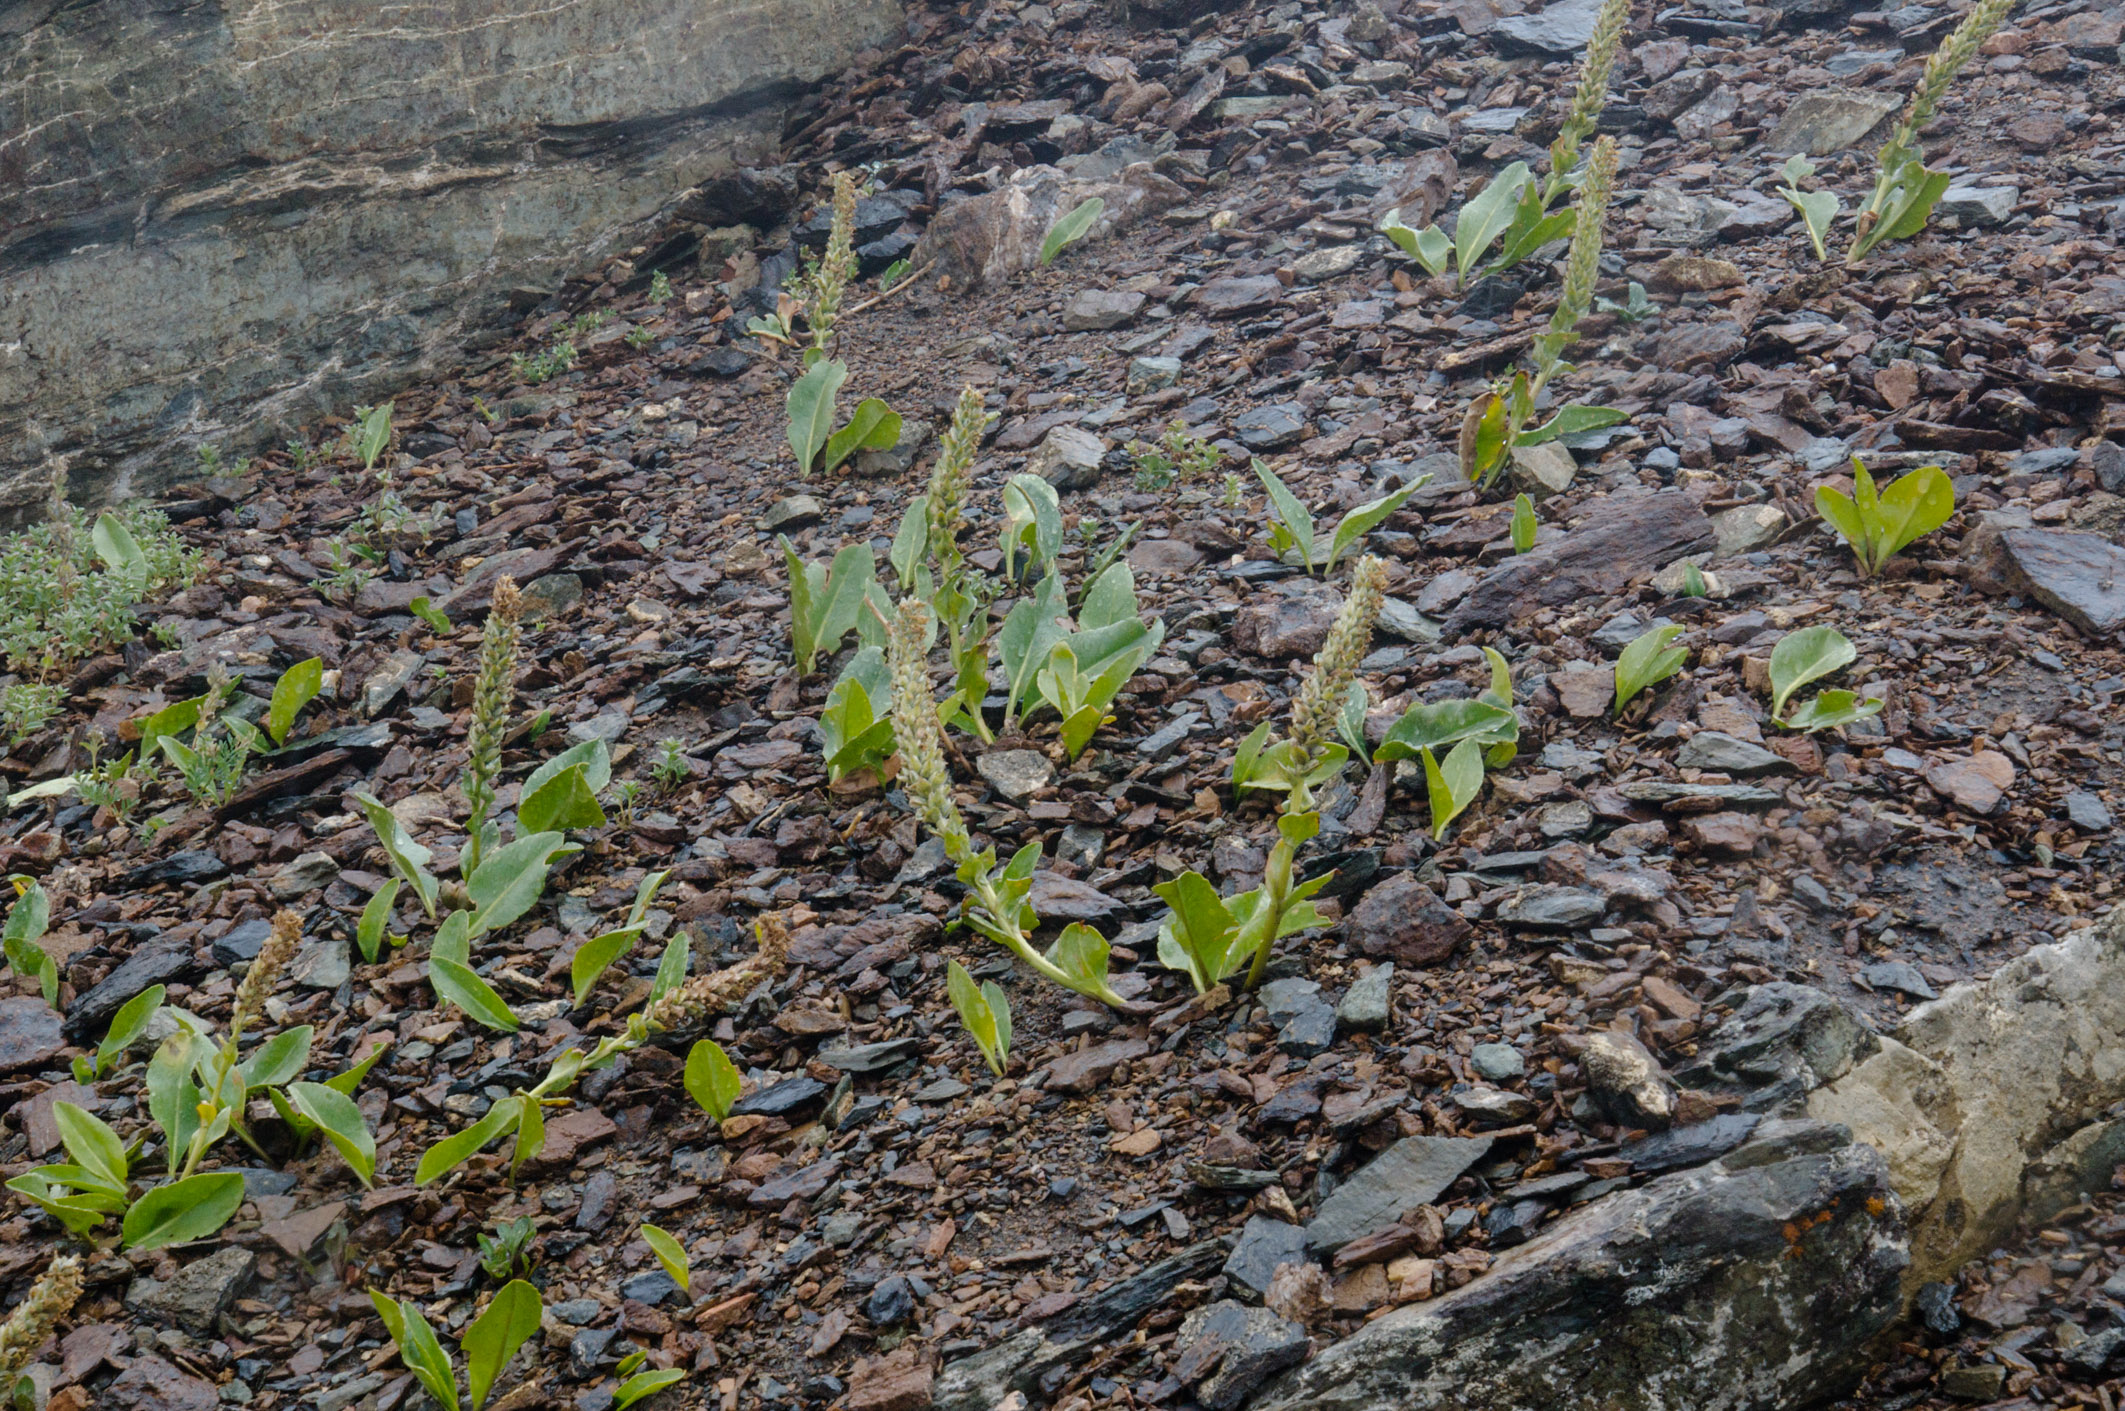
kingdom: Plantae
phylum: Tracheophyta
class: Magnoliopsida
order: Lamiales
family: Plantaginaceae
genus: Lagotis
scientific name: Lagotis integrifolia
